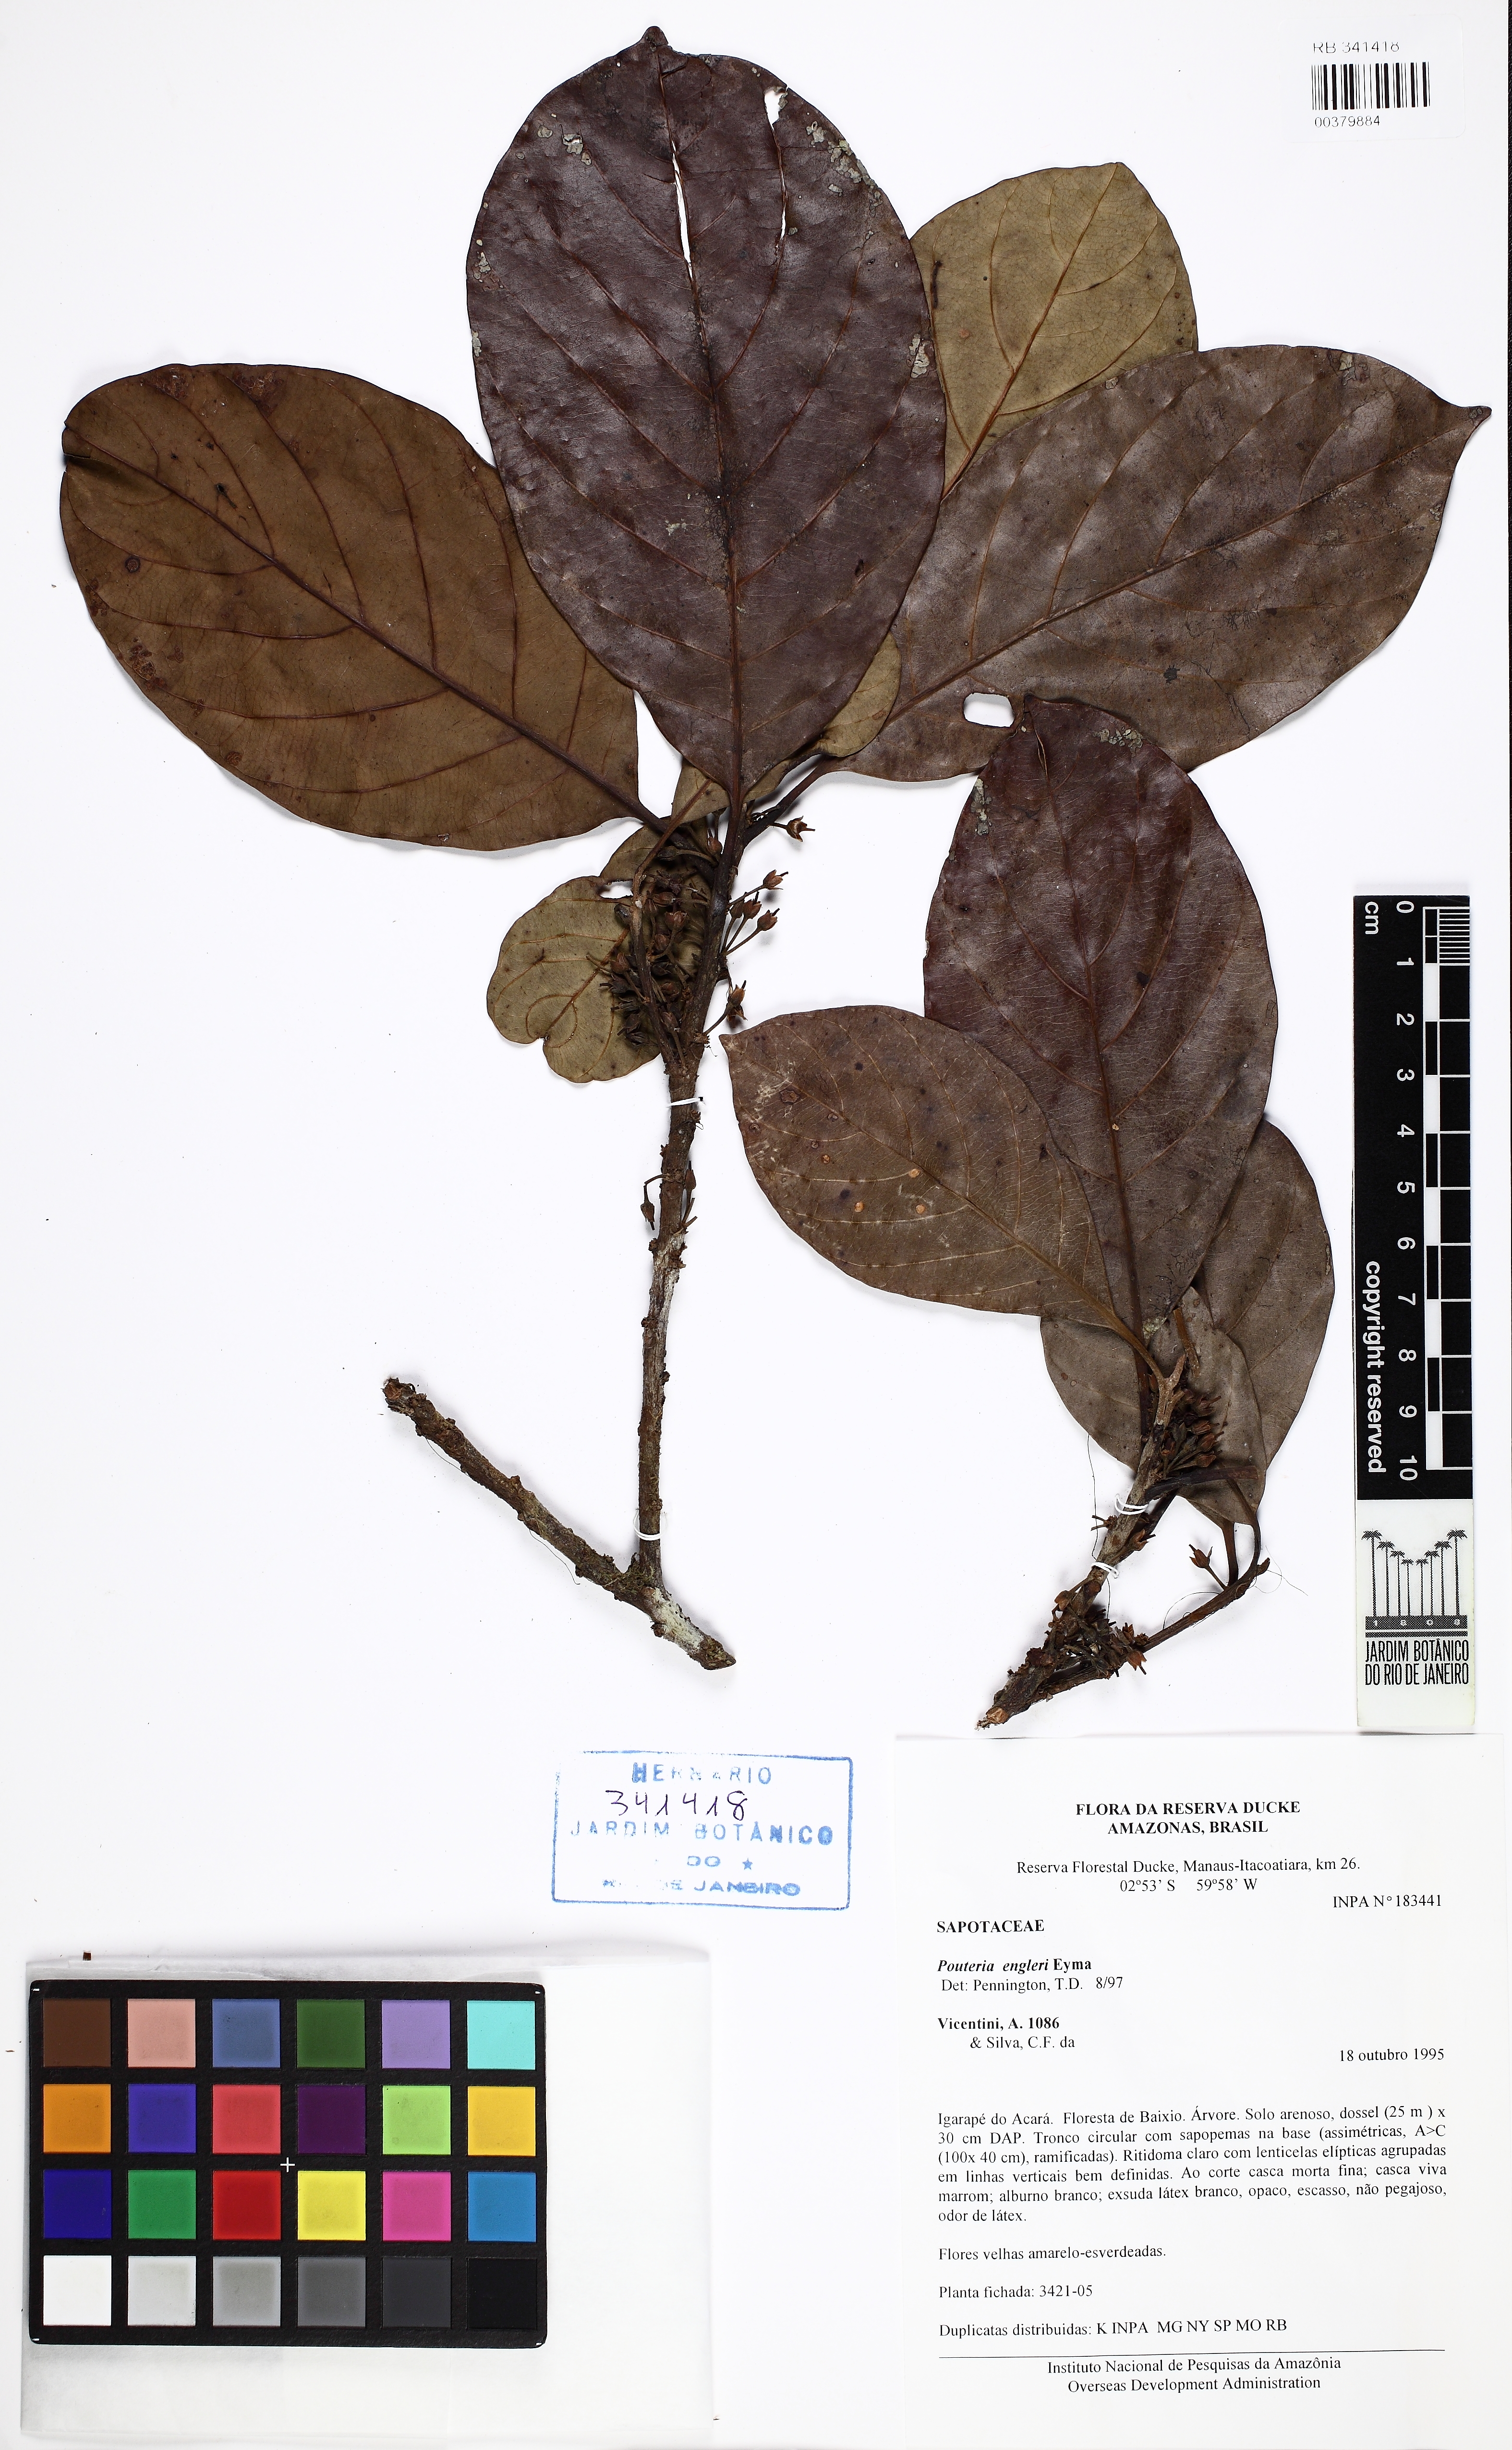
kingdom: Plantae
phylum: Tracheophyta
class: Magnoliopsida
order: Ericales
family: Sapotaceae
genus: Pouteria
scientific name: Pouteria engleri
